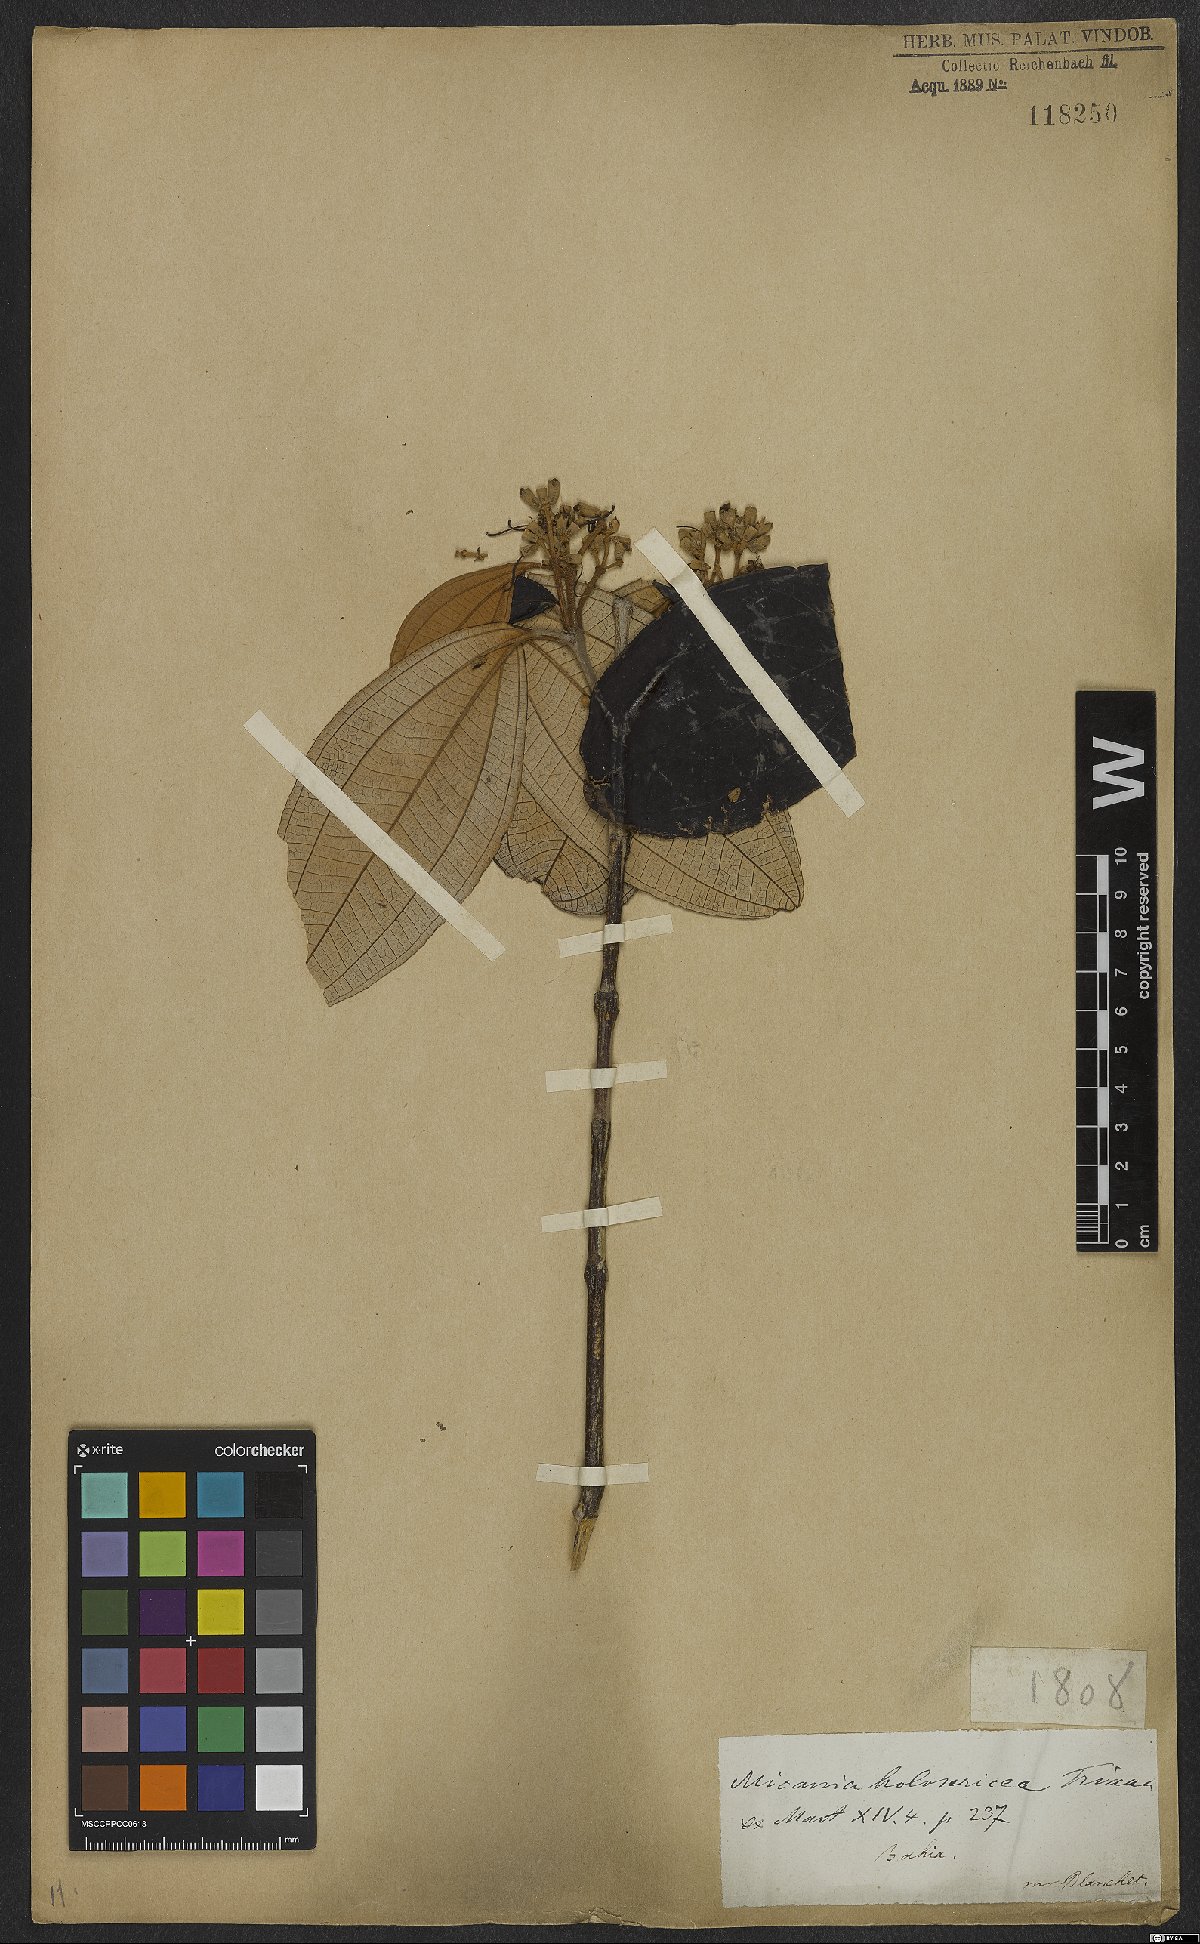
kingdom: Plantae
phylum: Tracheophyta
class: Magnoliopsida
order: Myrtales
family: Melastomataceae
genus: Miconia
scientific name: Miconia holosericea
